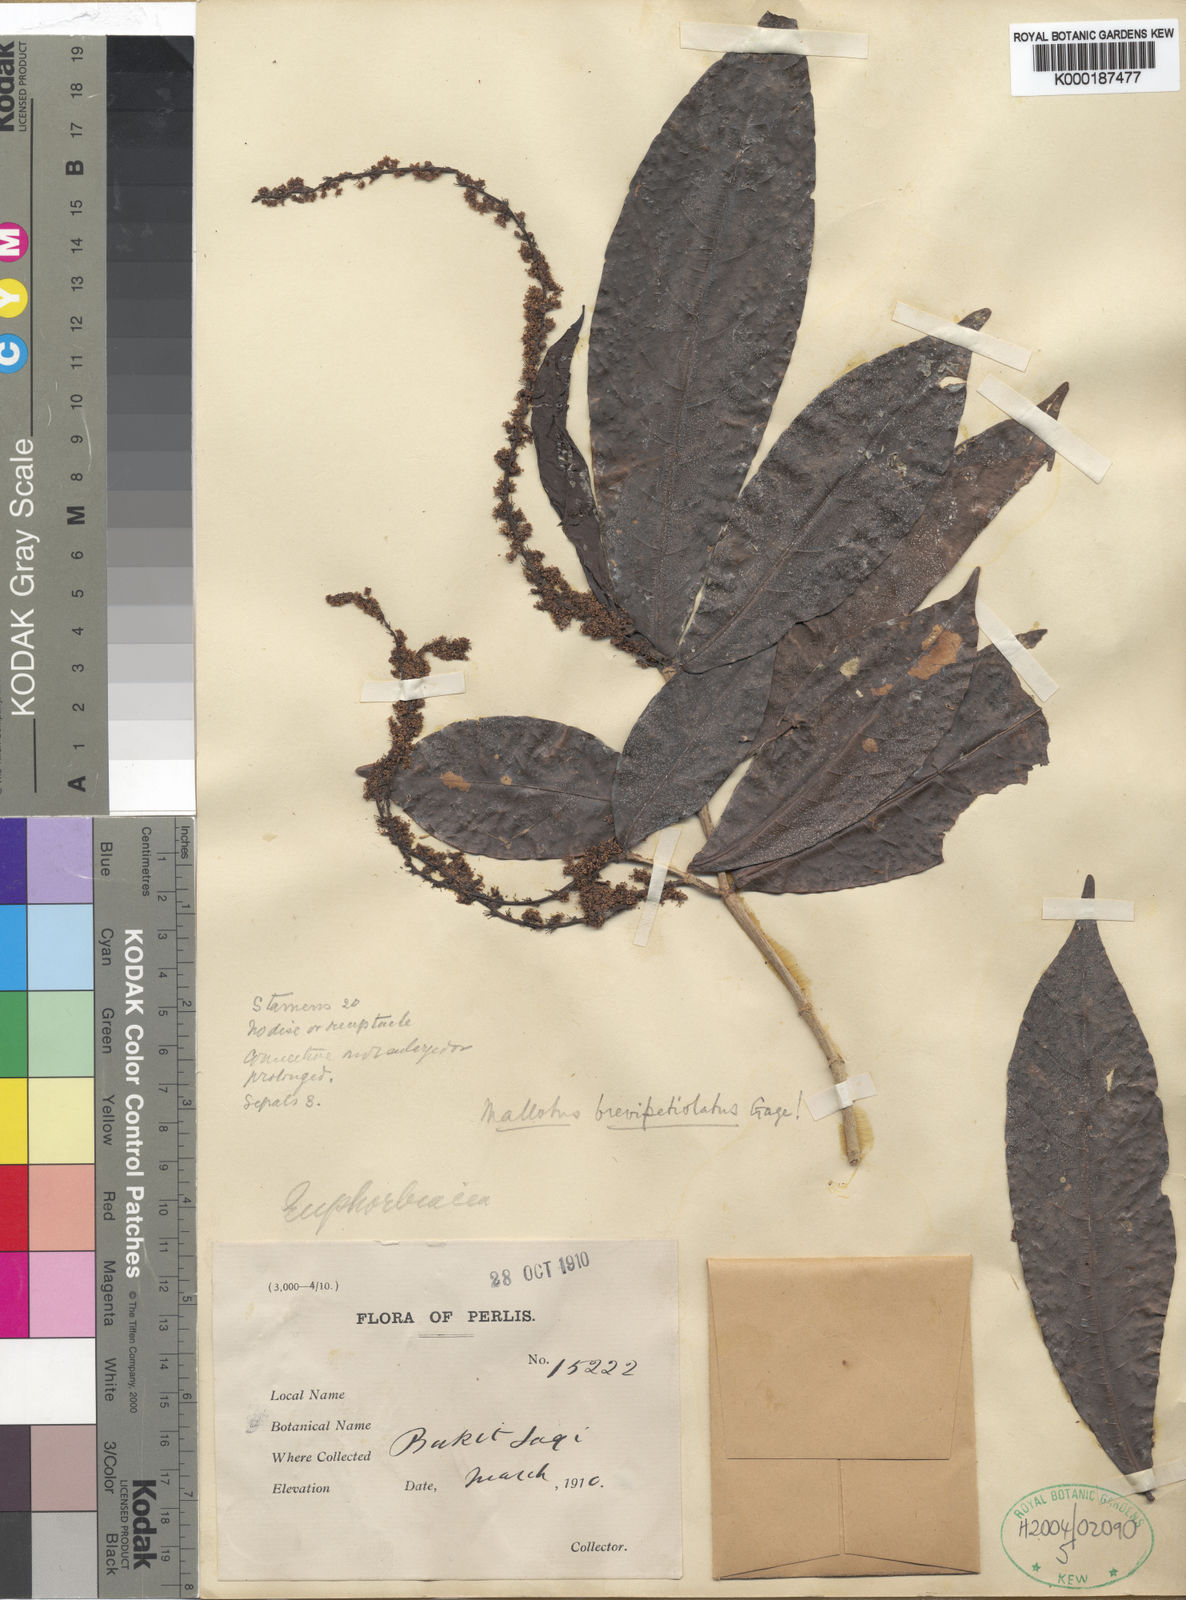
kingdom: Plantae
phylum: Tracheophyta
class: Magnoliopsida
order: Malpighiales
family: Euphorbiaceae
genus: Mallotus
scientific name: Mallotus brevipetiolatus
